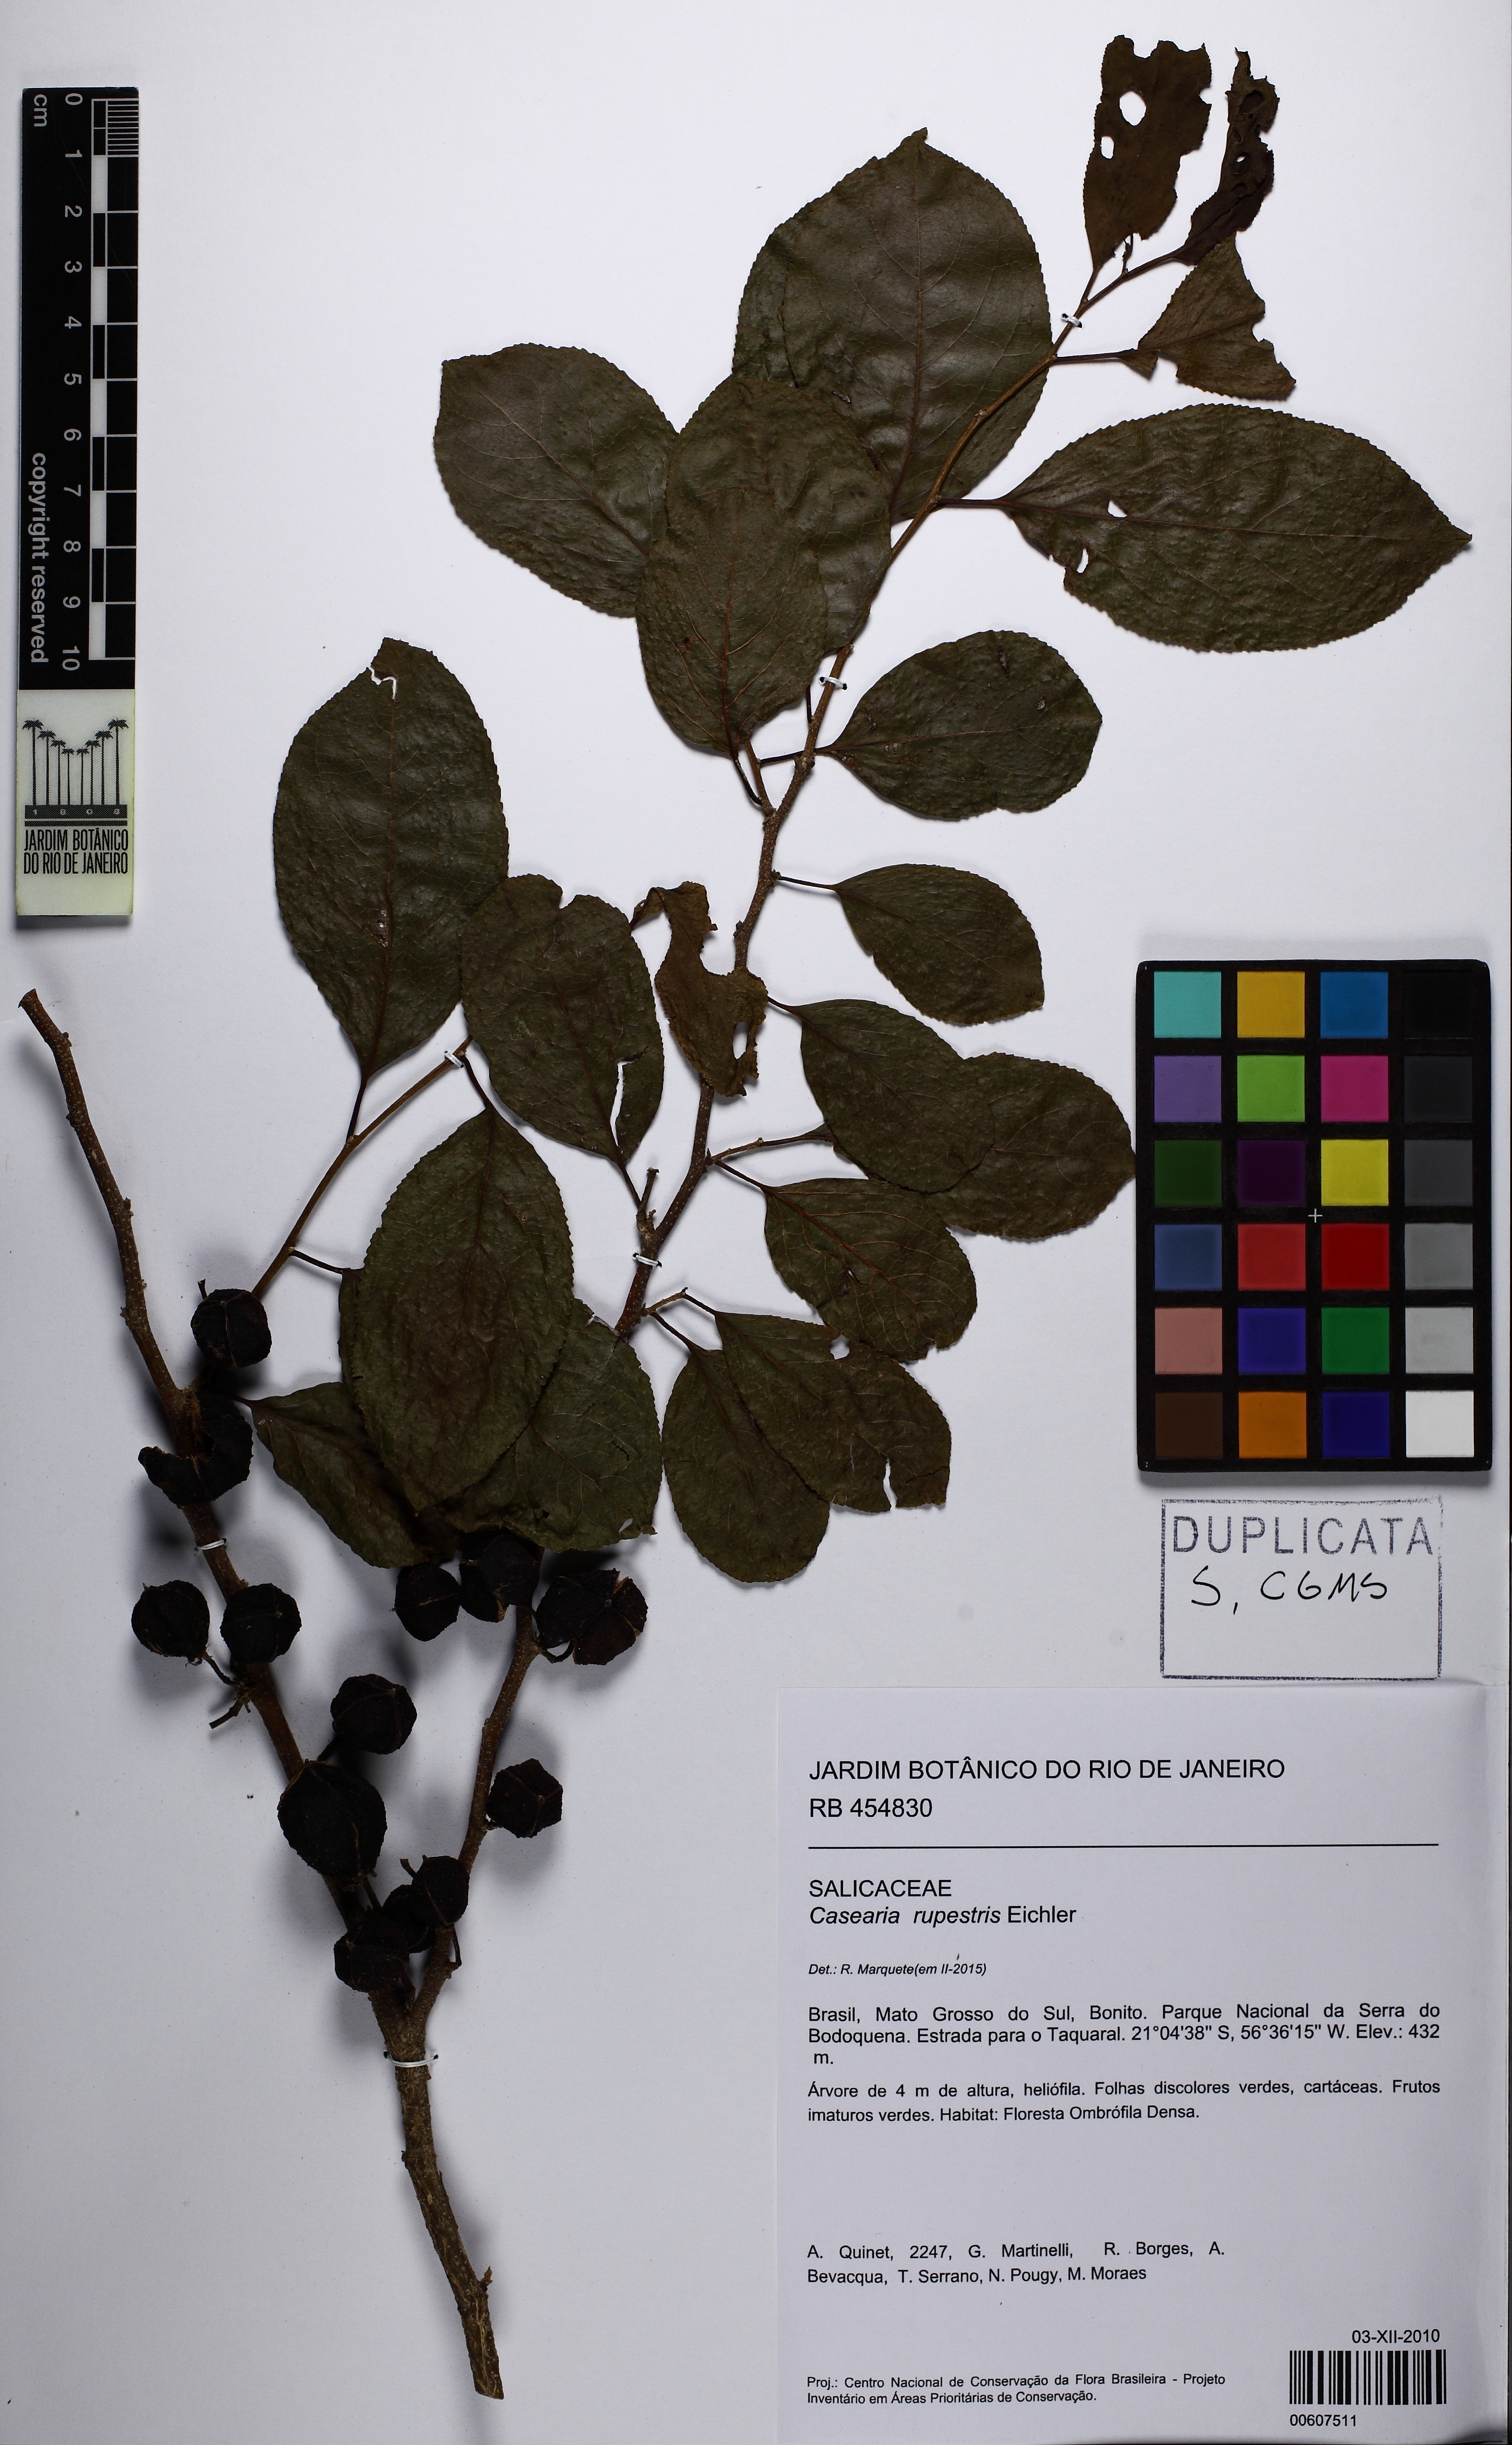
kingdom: Plantae
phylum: Tracheophyta
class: Magnoliopsida
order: Malpighiales
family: Salicaceae
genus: Casearia
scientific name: Casearia rupestris
